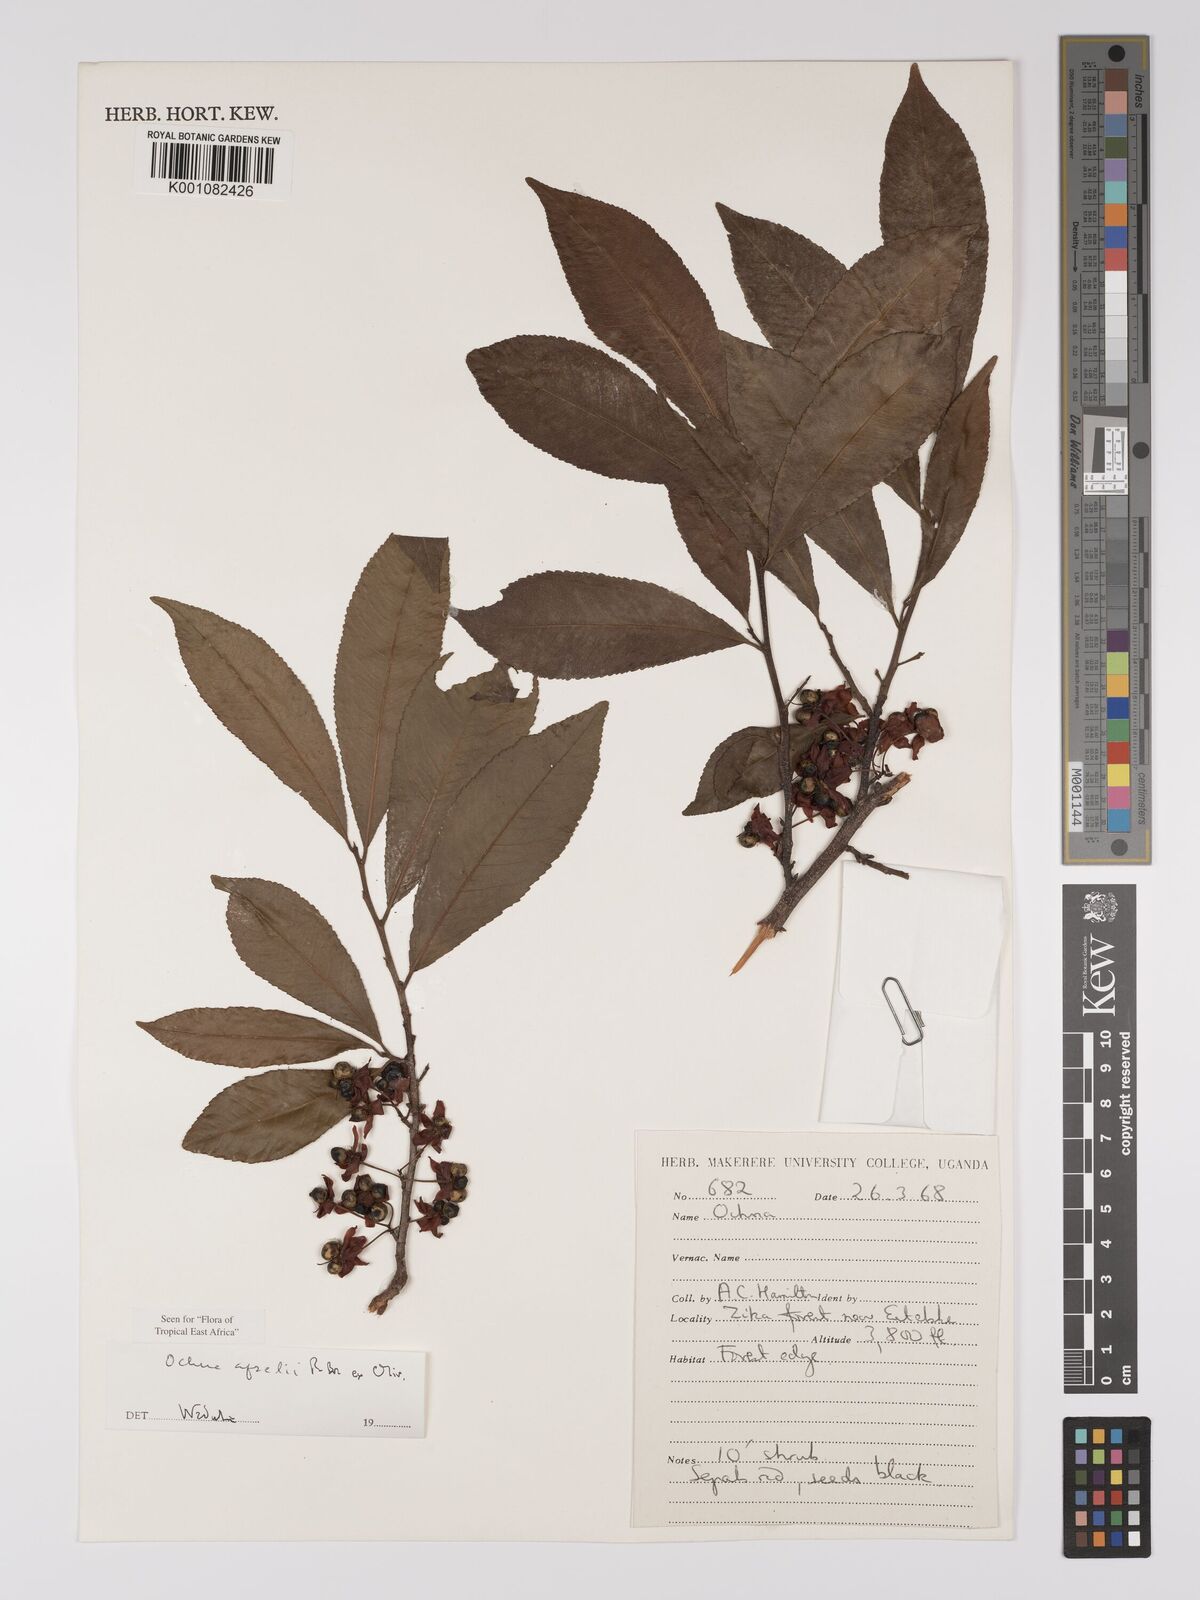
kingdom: Plantae
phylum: Tracheophyta
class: Magnoliopsida
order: Malpighiales
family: Ochnaceae
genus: Ochna
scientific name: Ochna afzelii
